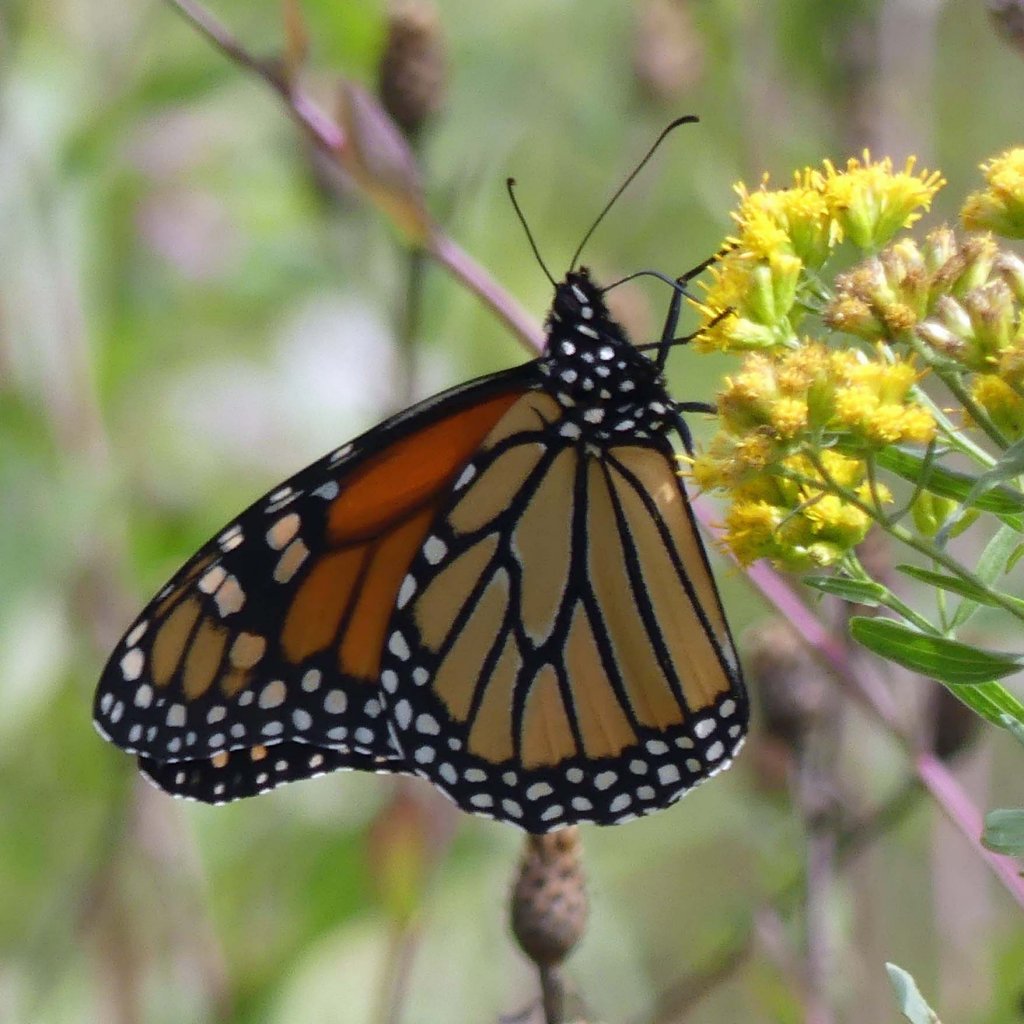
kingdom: Animalia
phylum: Arthropoda
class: Insecta
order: Lepidoptera
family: Nymphalidae
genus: Danaus
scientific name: Danaus plexippus
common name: Monarch
